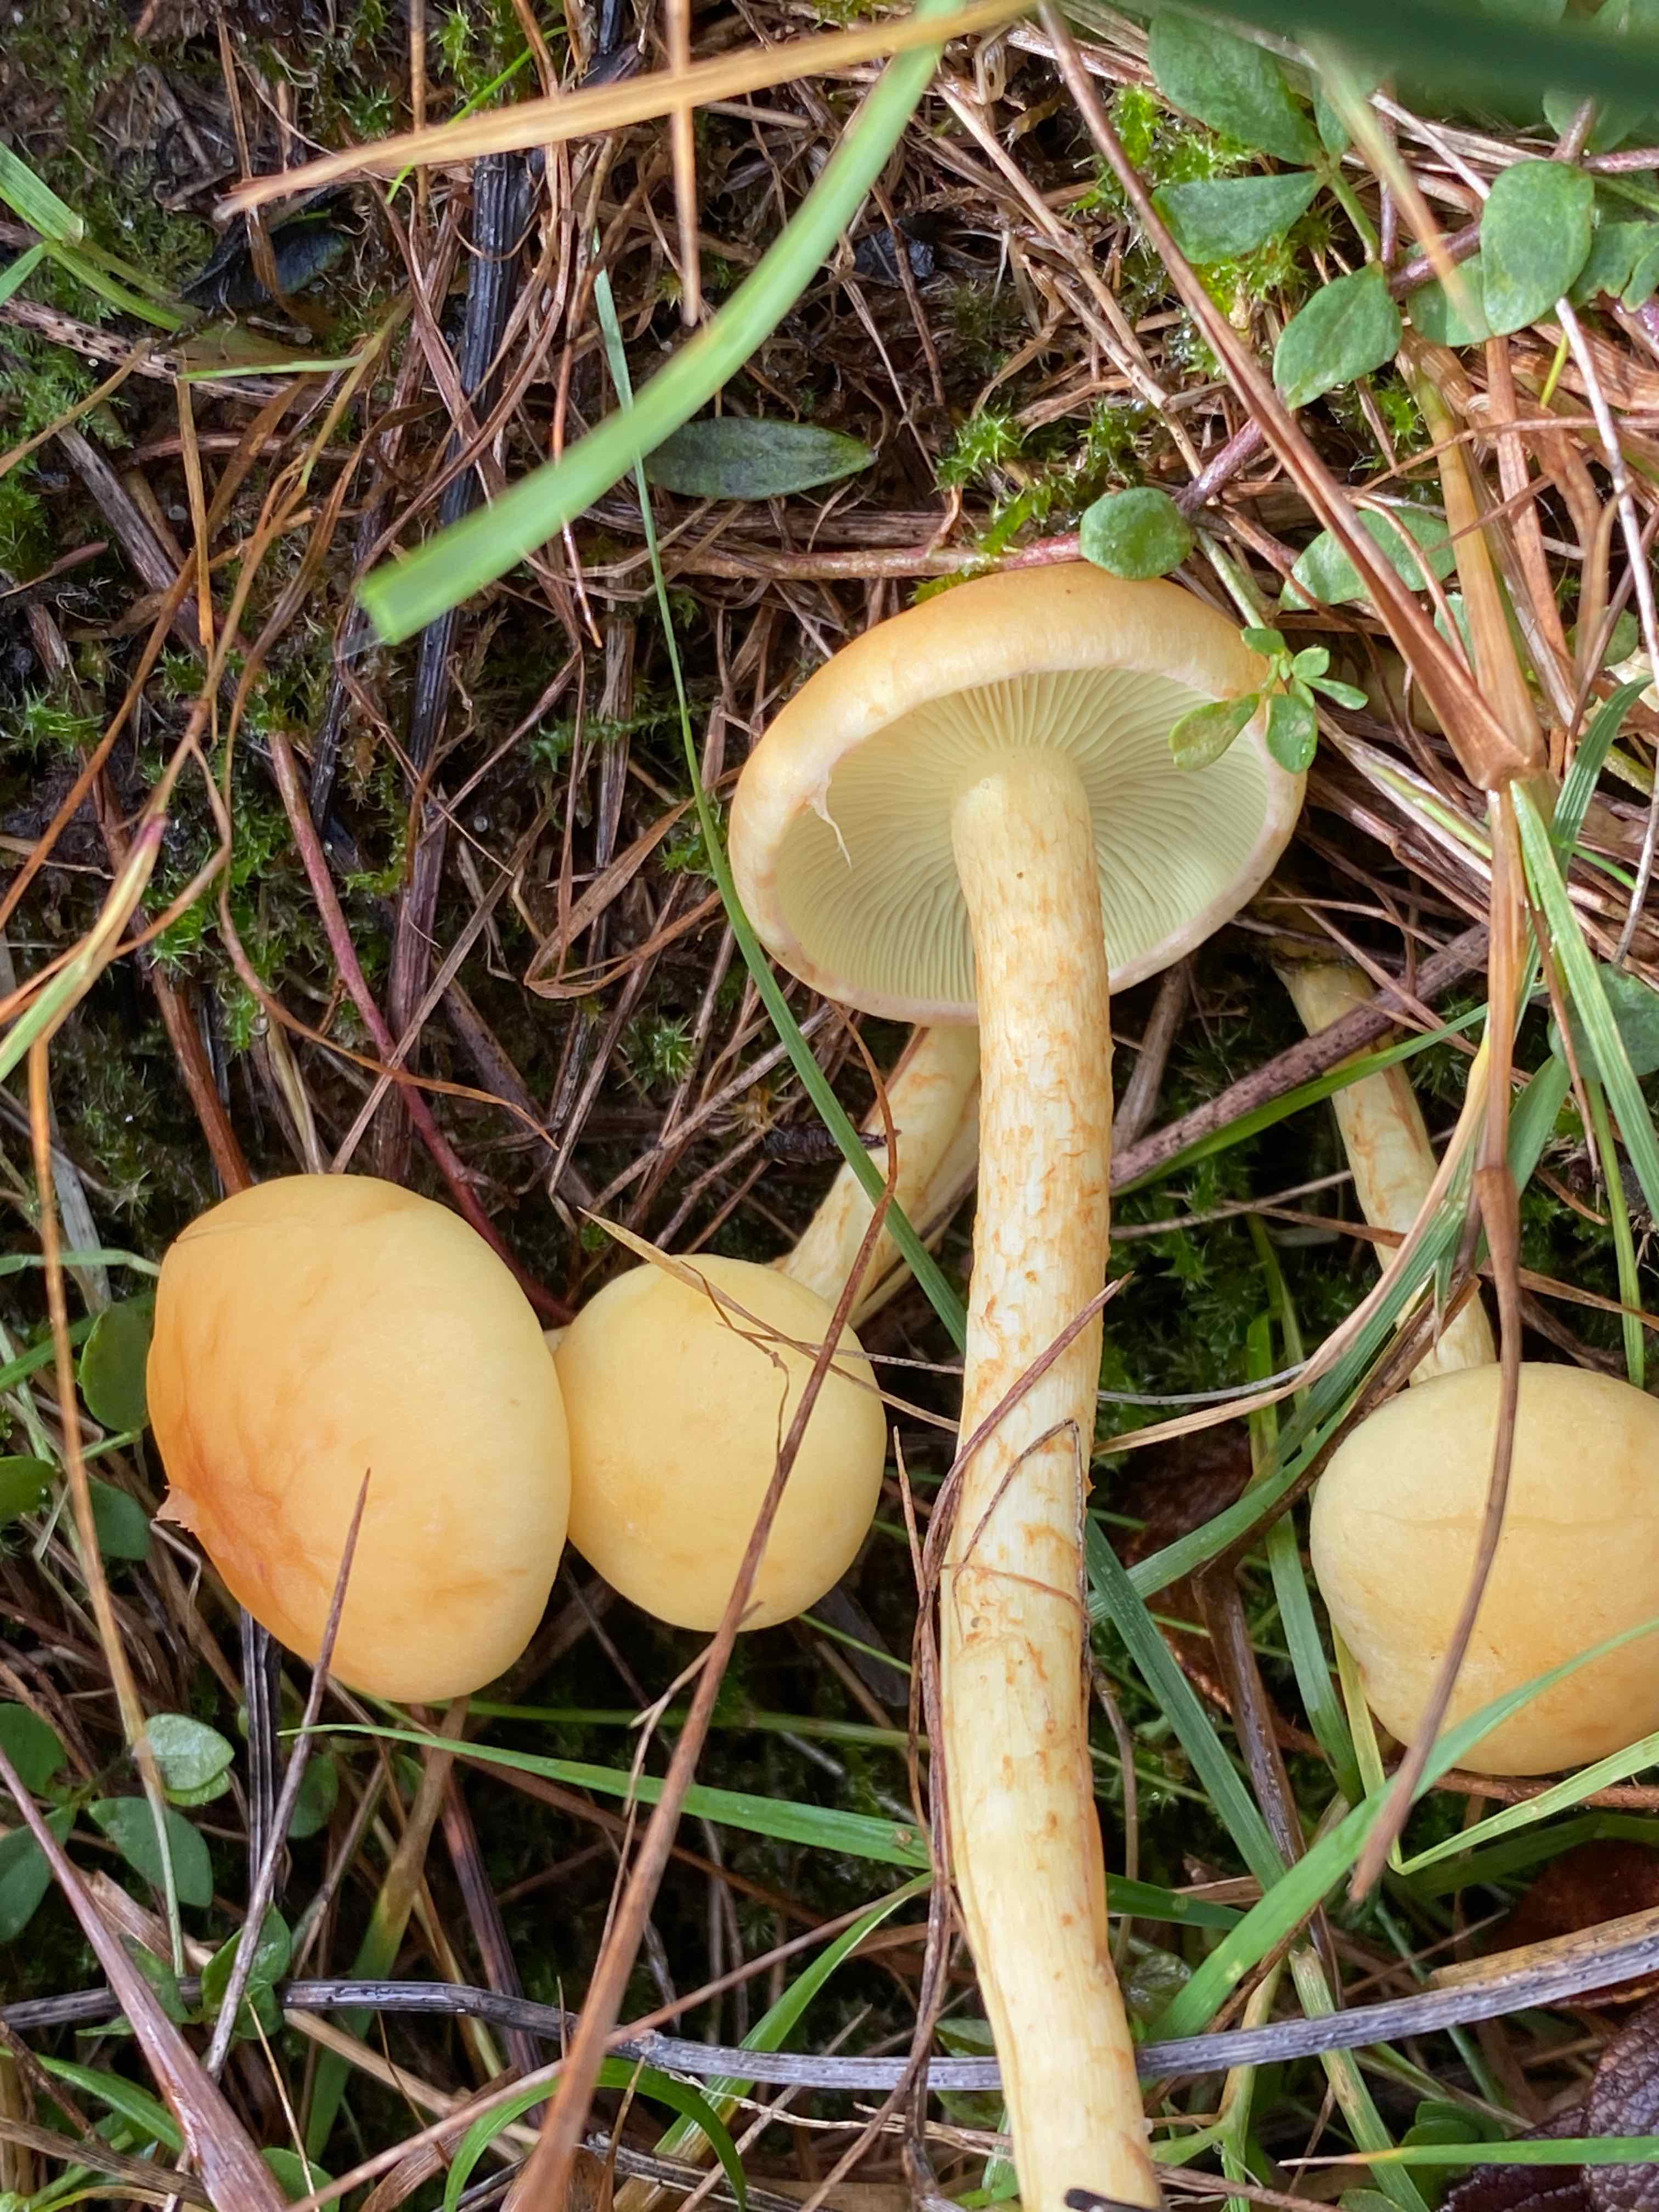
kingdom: Fungi
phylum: Basidiomycota
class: Agaricomycetes
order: Agaricales
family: Strophariaceae
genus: Hypholoma
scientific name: Hypholoma fasciculare
